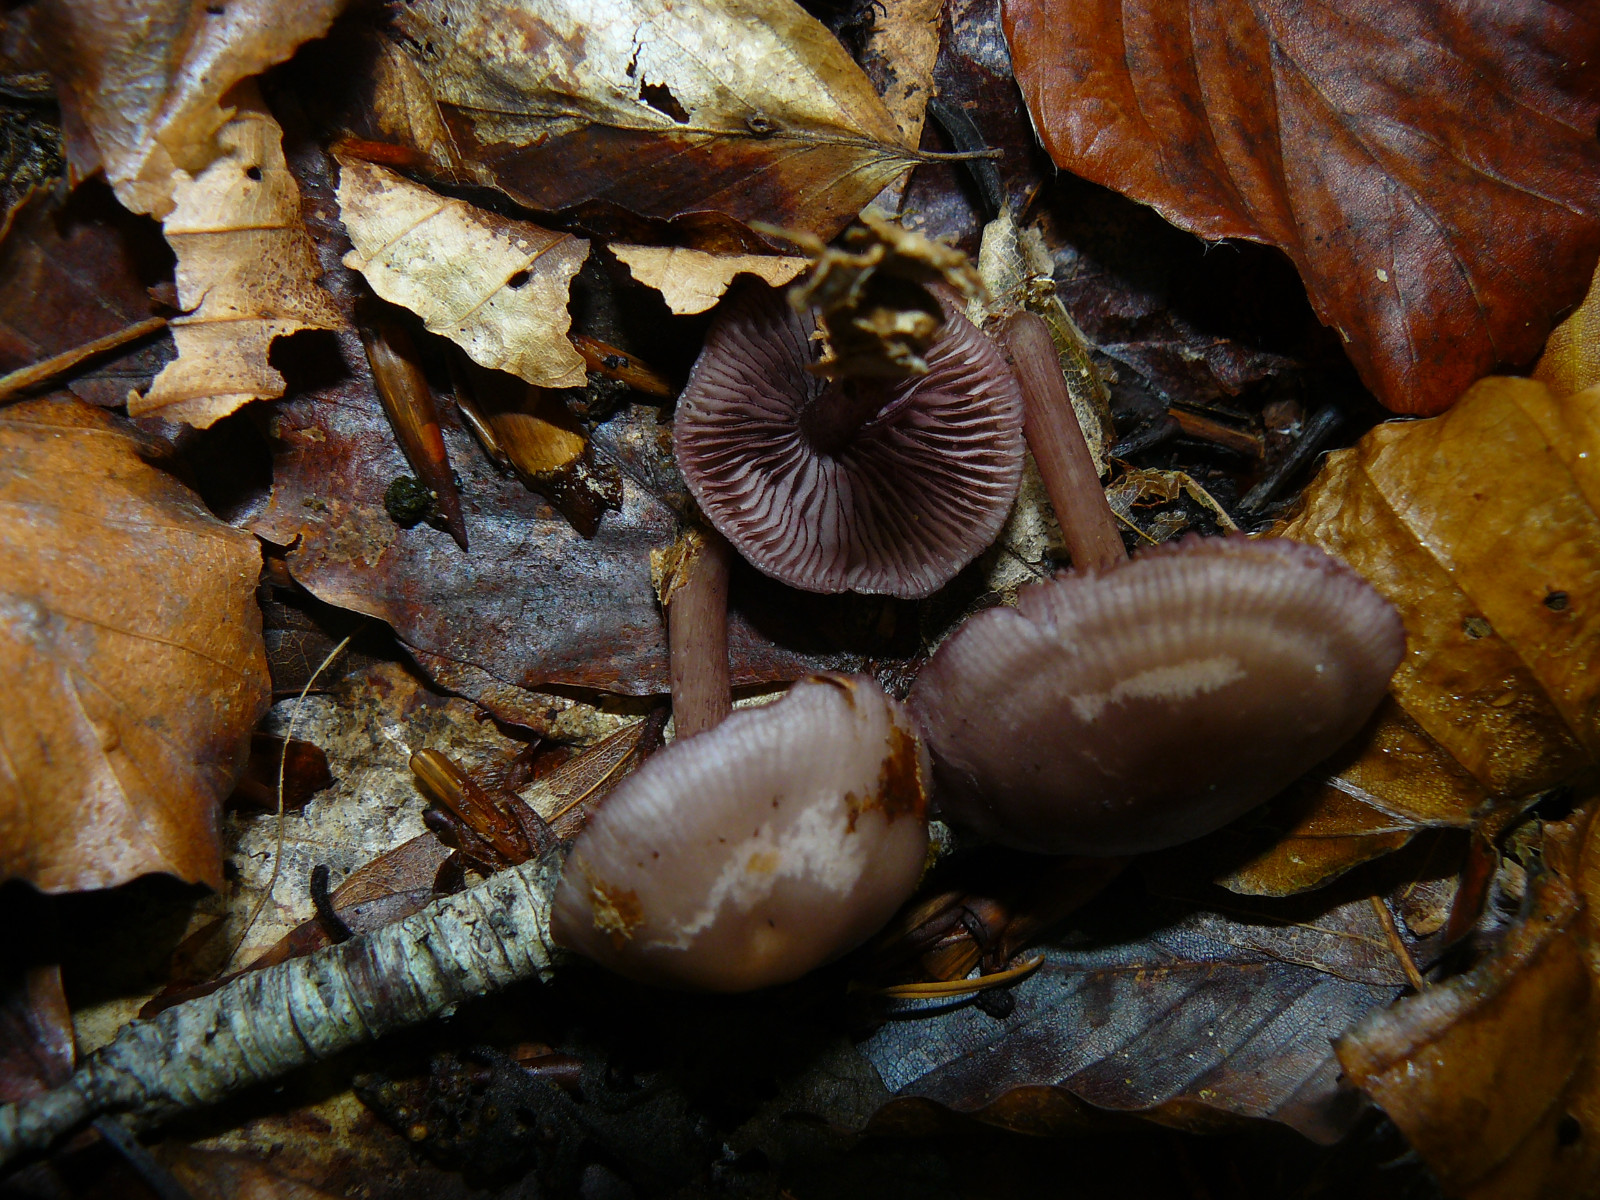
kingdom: Fungi
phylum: Basidiomycota
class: Agaricomycetes
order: Agaricales
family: Mycenaceae
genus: Mycena
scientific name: Mycena pelianthina
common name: mørkbladet huesvamp
